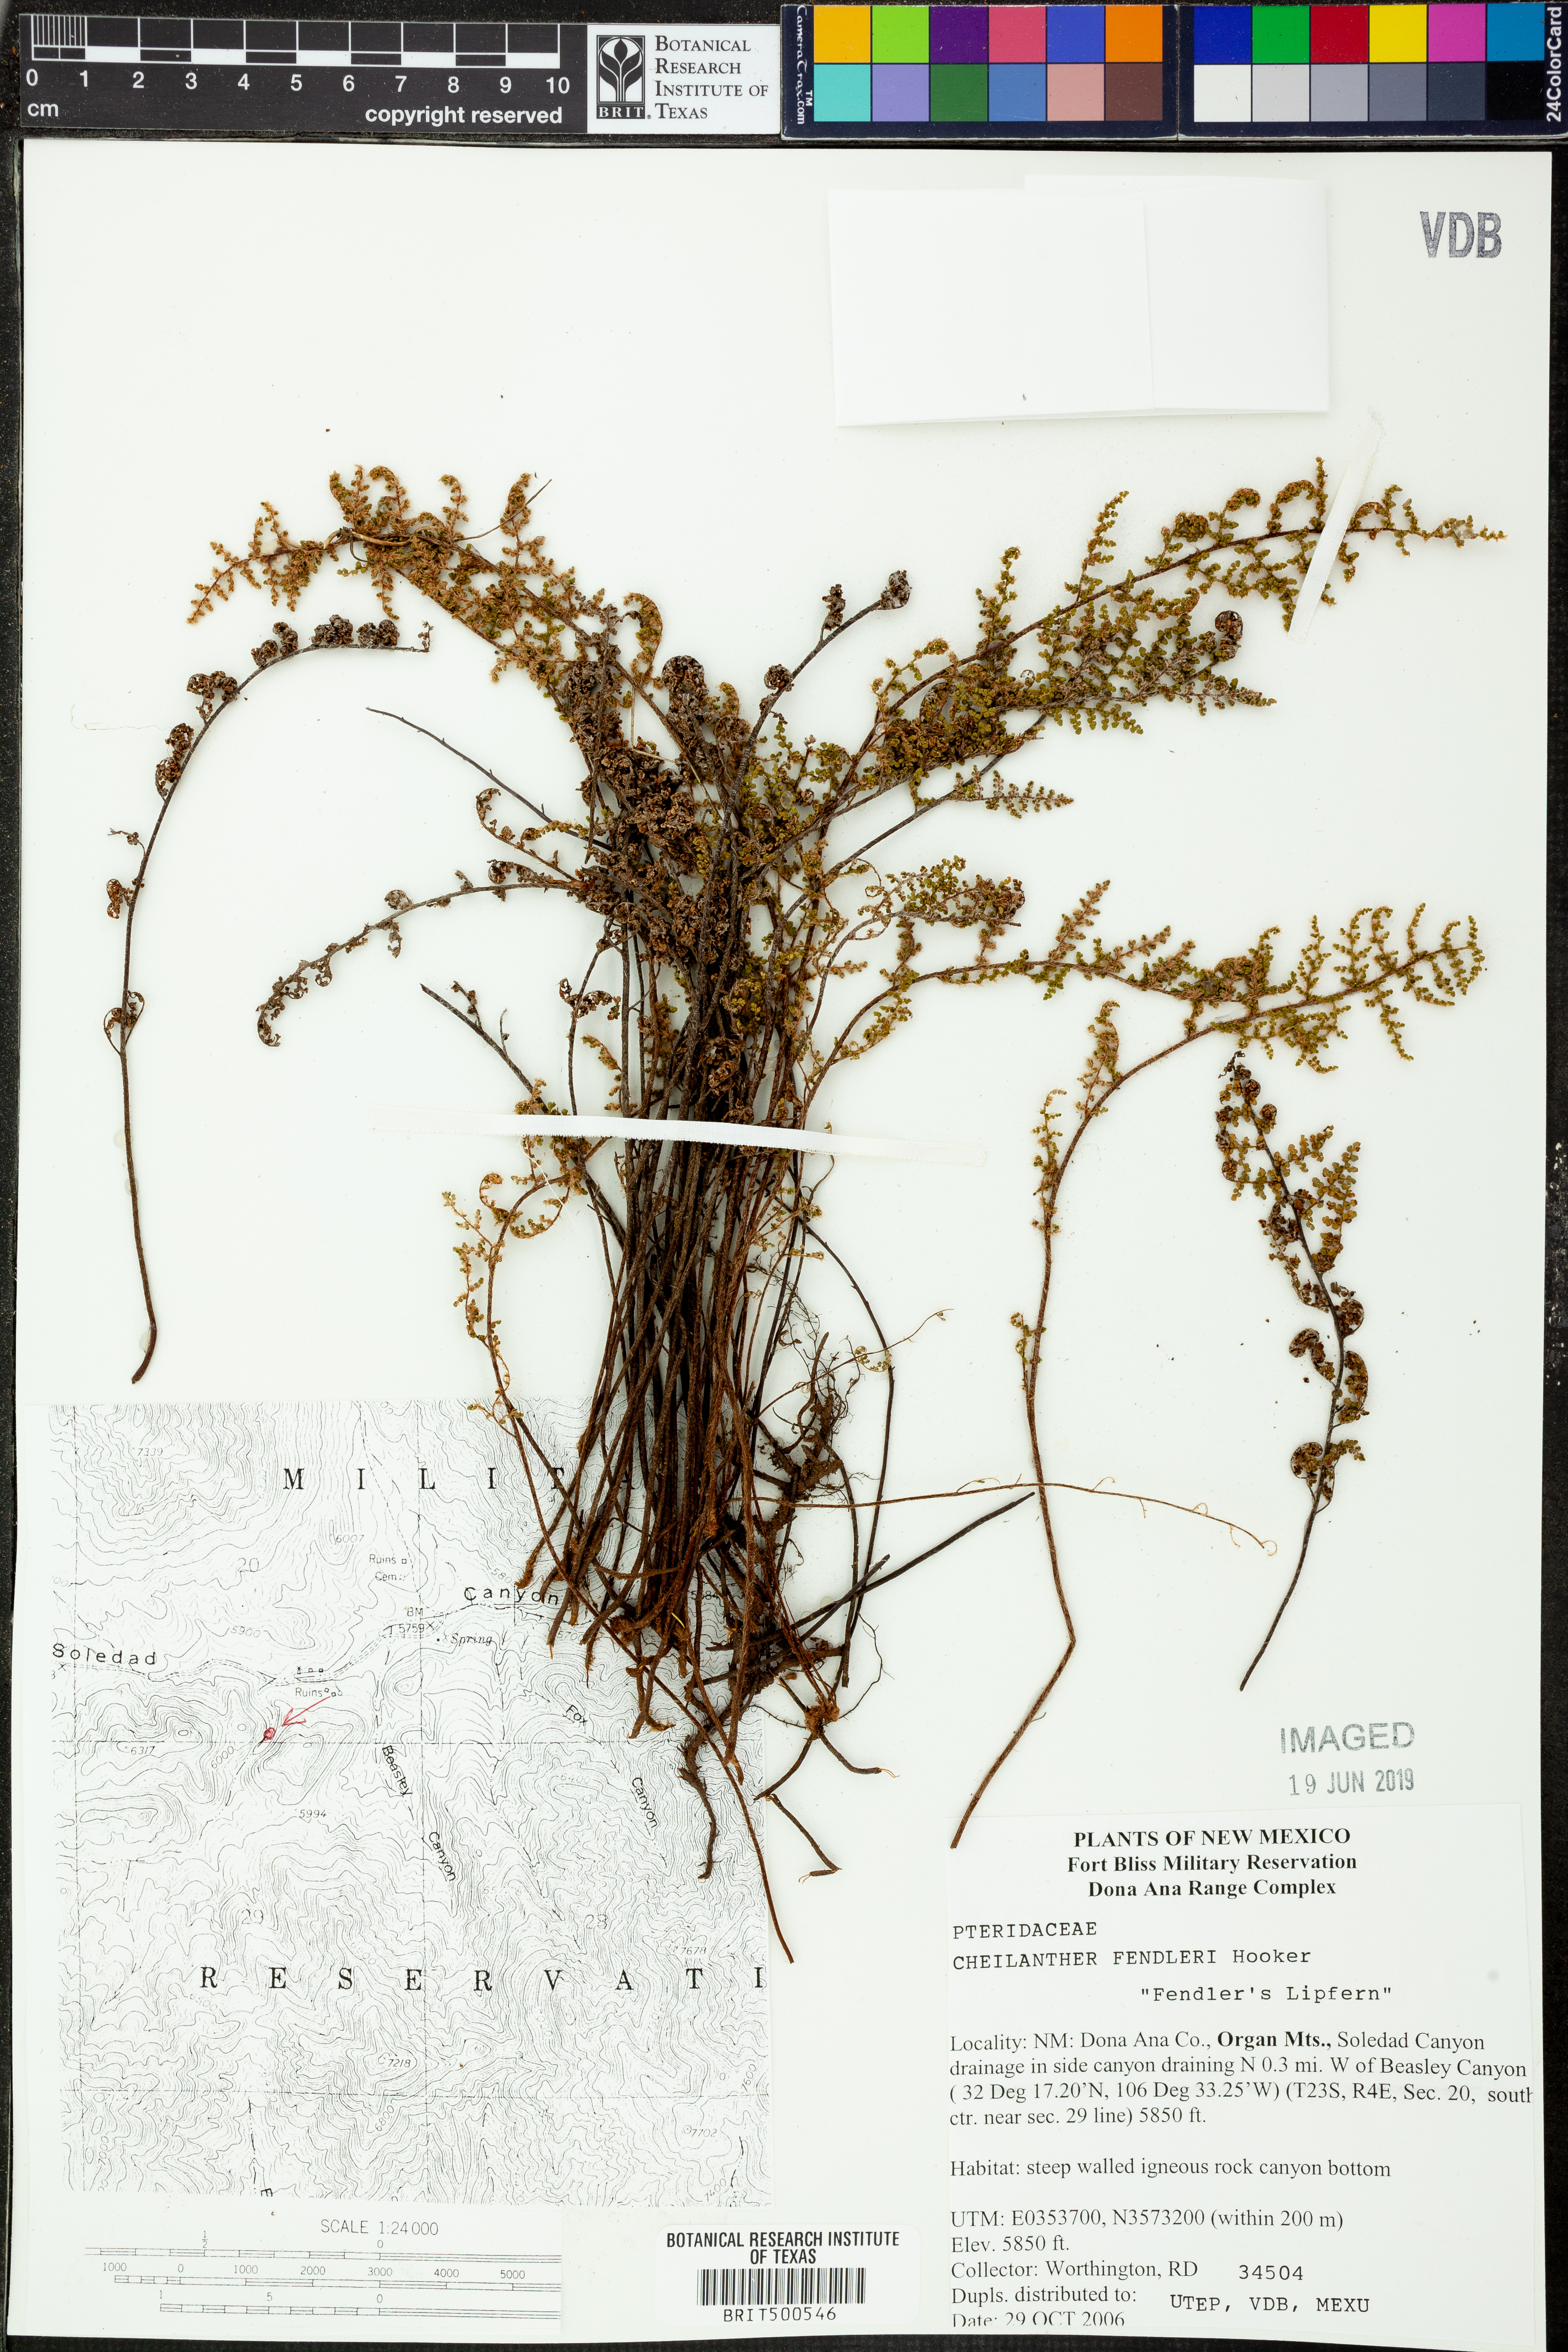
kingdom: Plantae
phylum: Tracheophyta
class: Polypodiopsida
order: Polypodiales
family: Pteridaceae
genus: Myriopteris
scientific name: Myriopteris fendleri
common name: Fendler's lip fern
